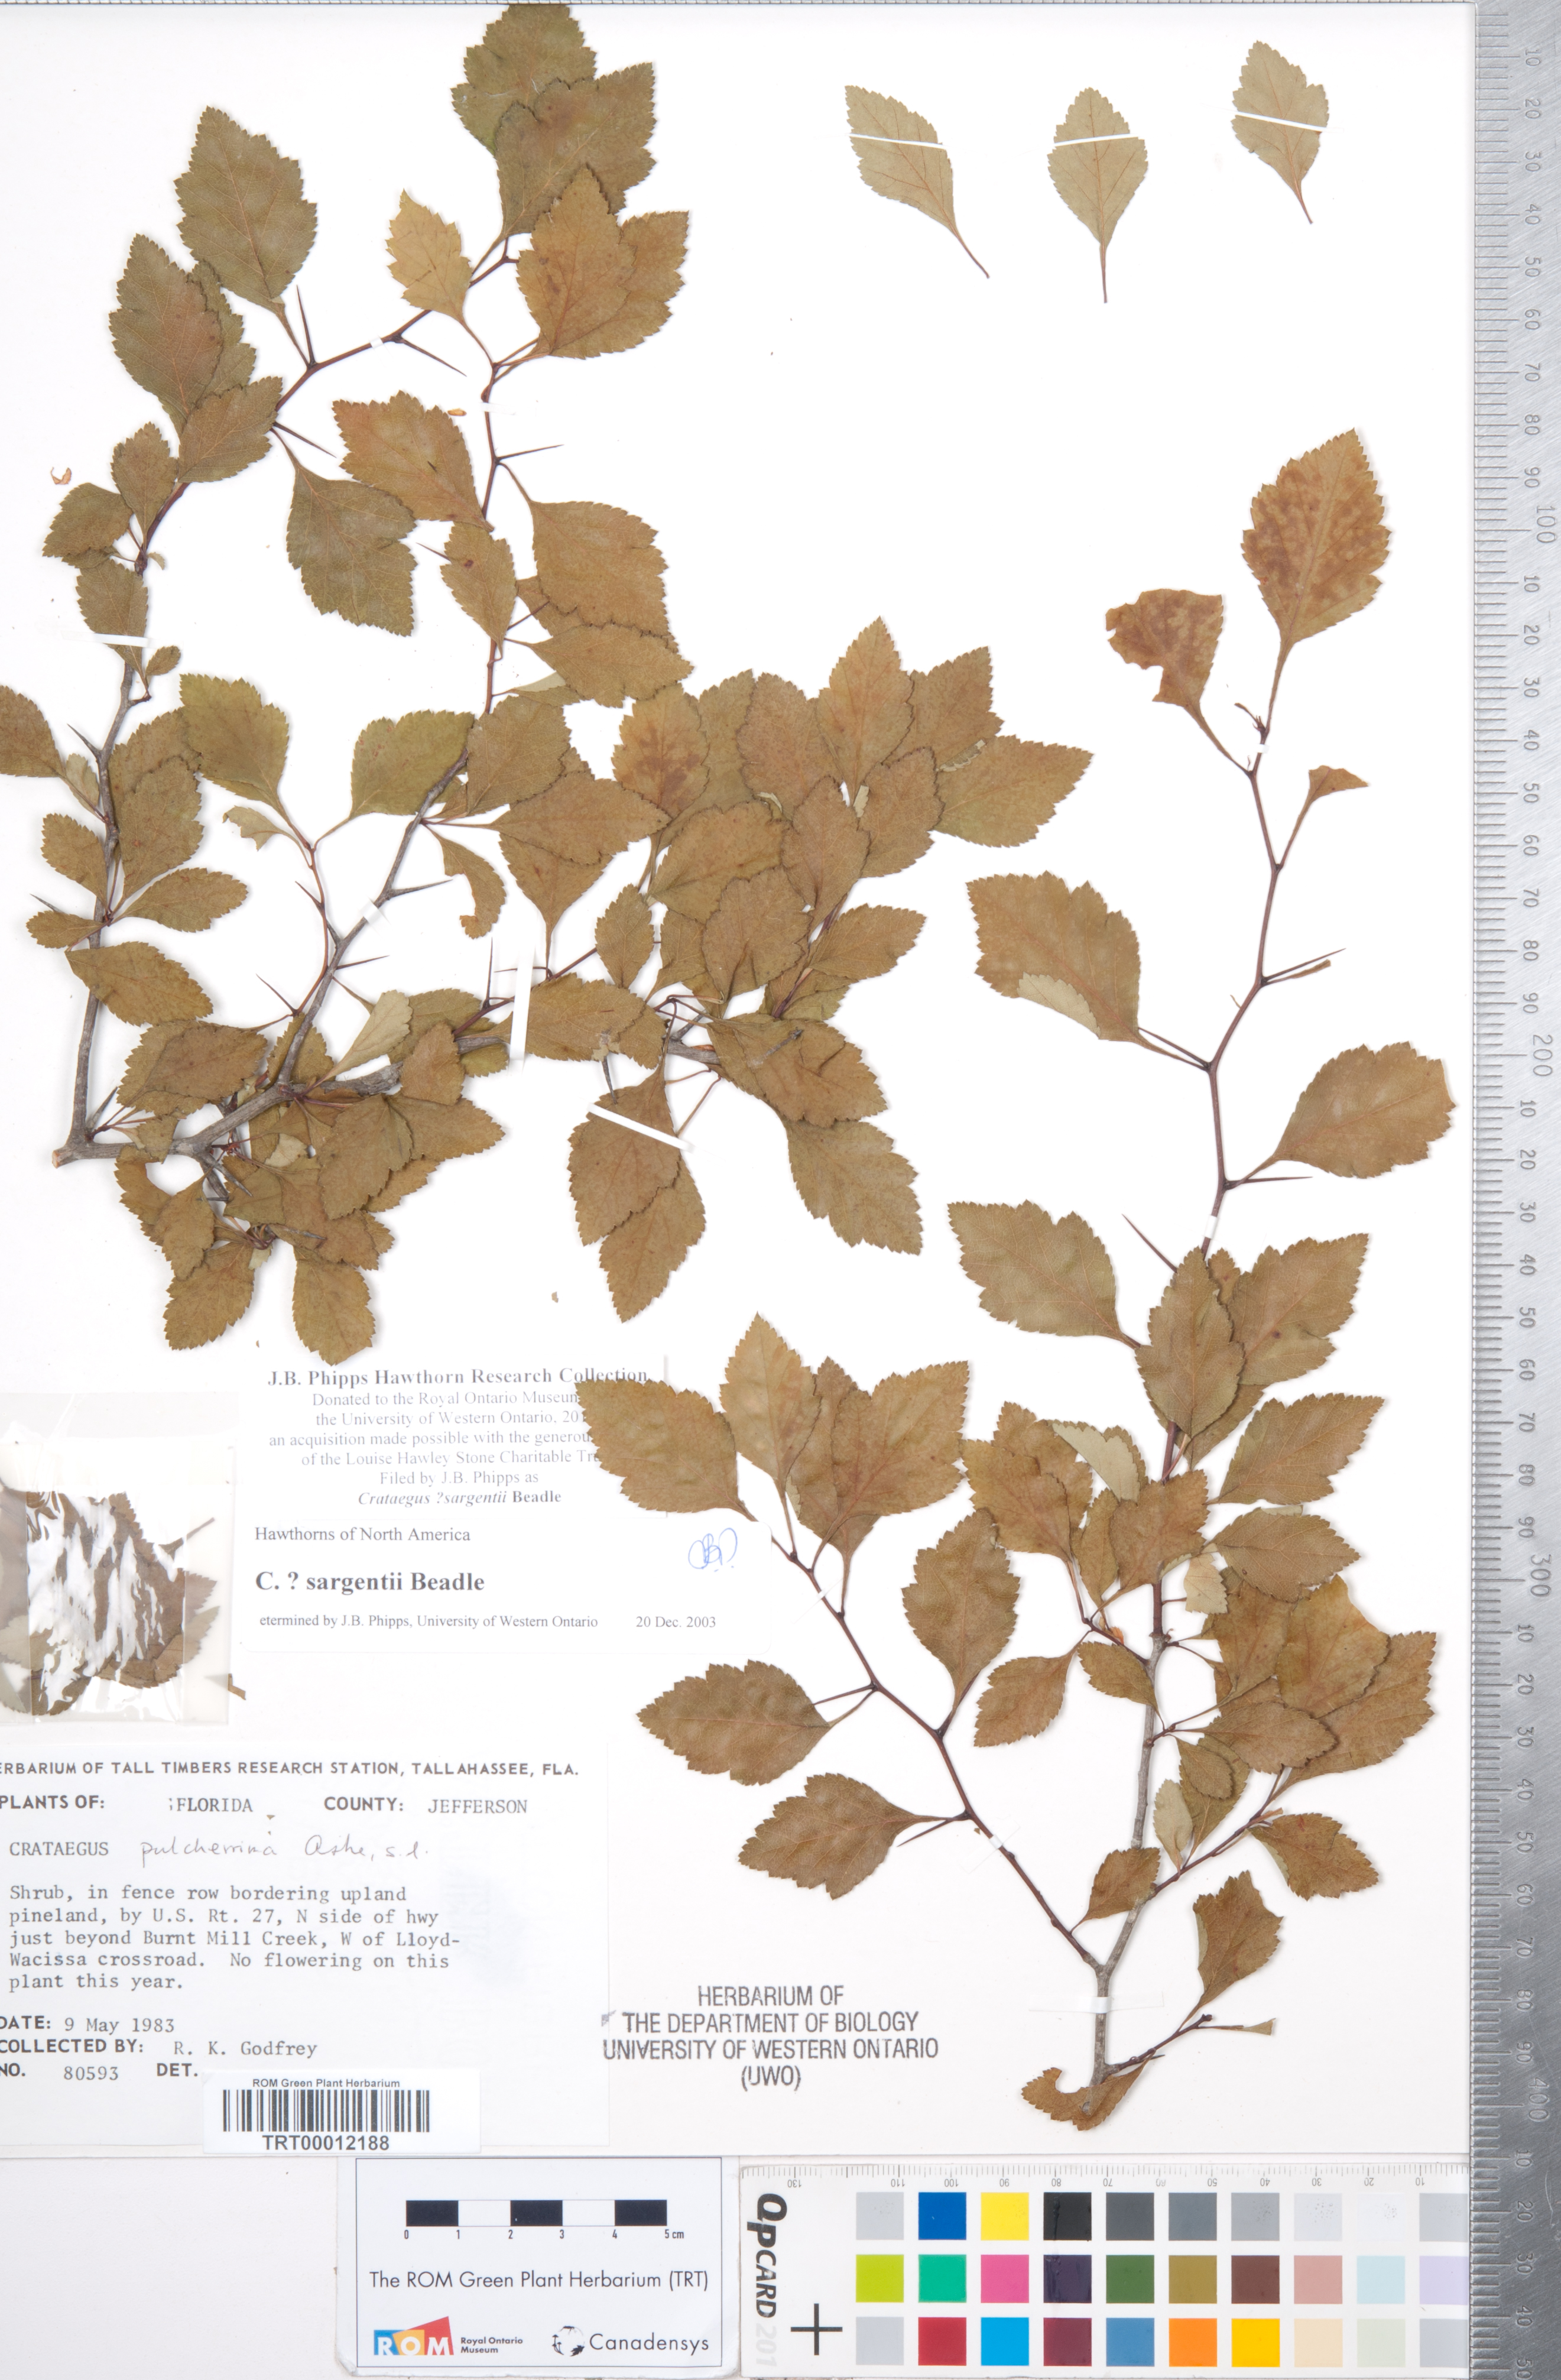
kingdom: Plantae
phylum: Tracheophyta
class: Magnoliopsida
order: Rosales
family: Rosaceae
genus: Crataegus
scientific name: Crataegus sargentii
